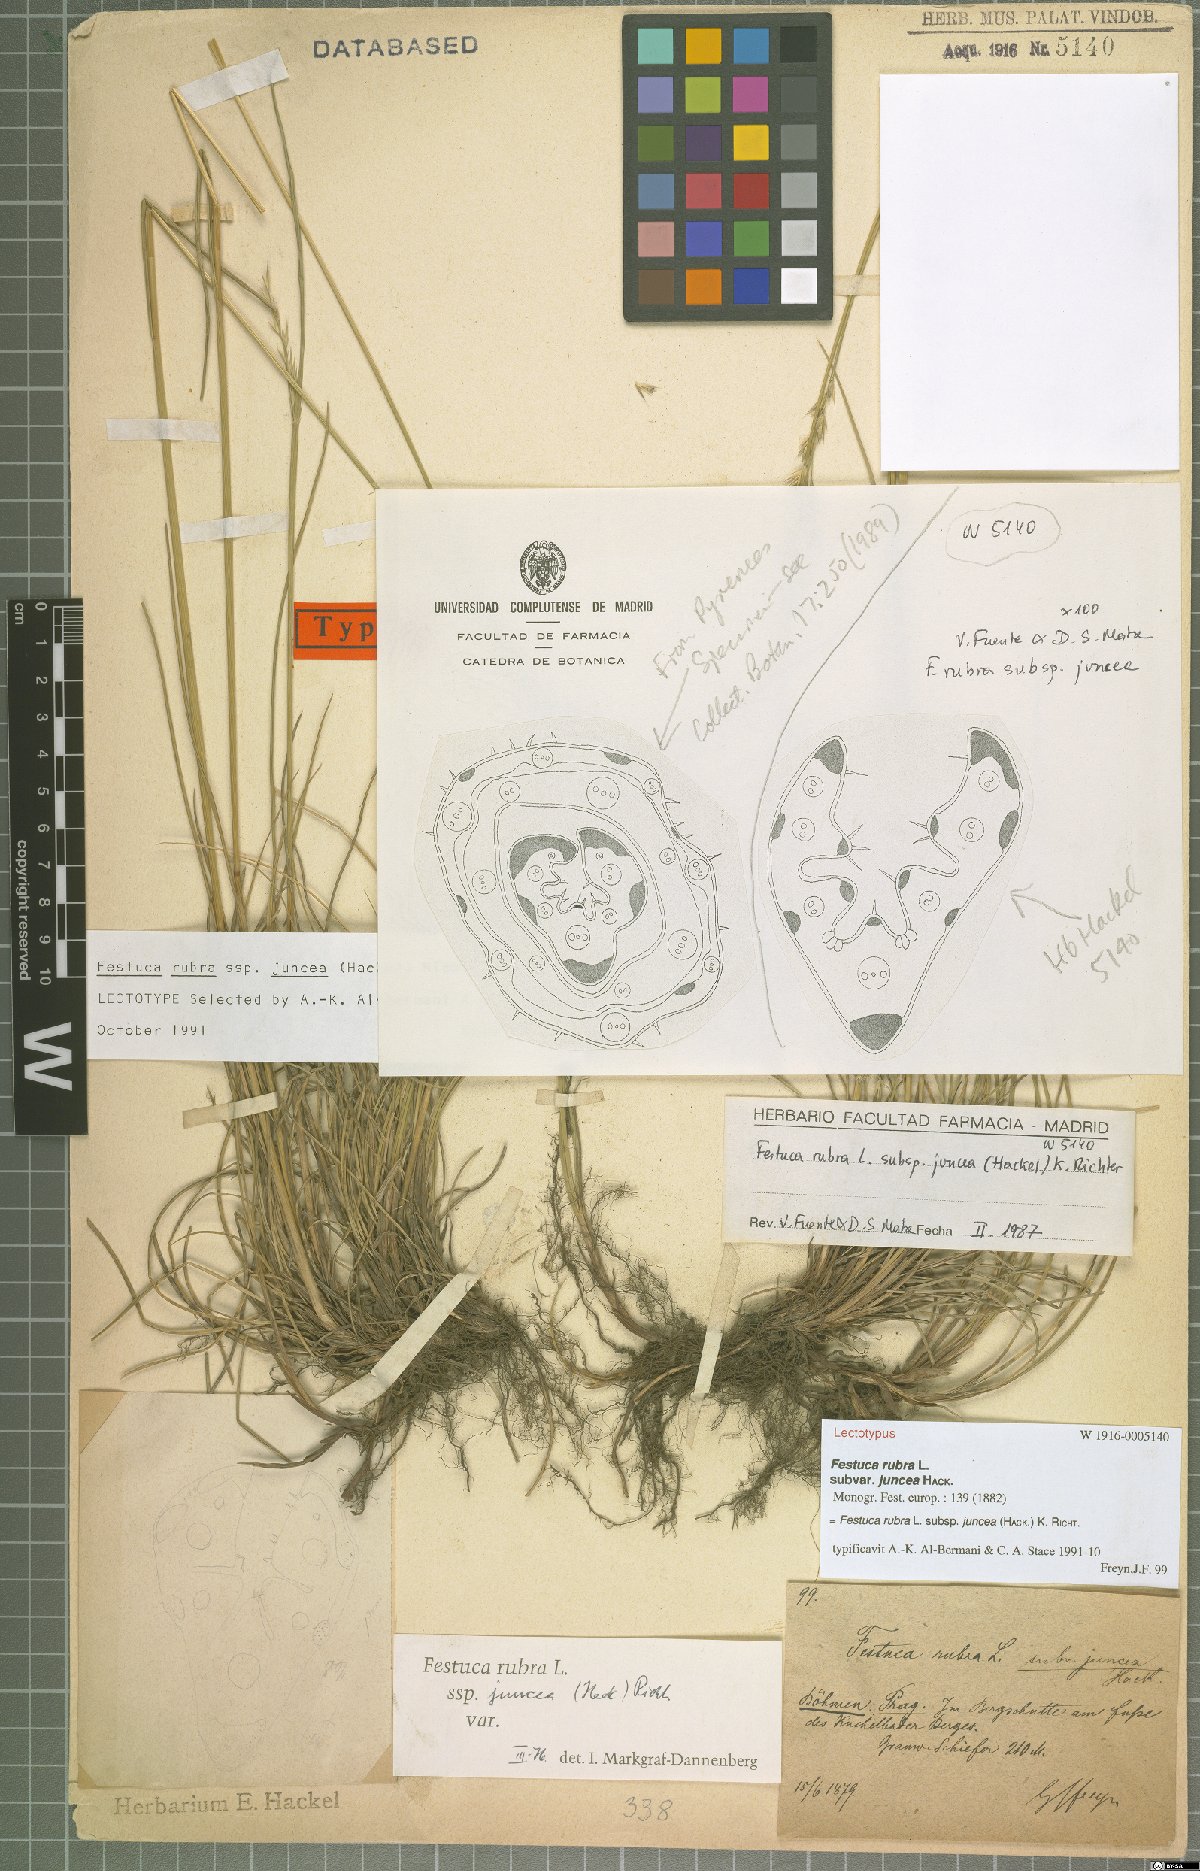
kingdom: Plantae
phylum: Tracheophyta
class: Liliopsida
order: Poales
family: Poaceae
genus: Festuca
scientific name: Festuca rubra
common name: Red fescue
